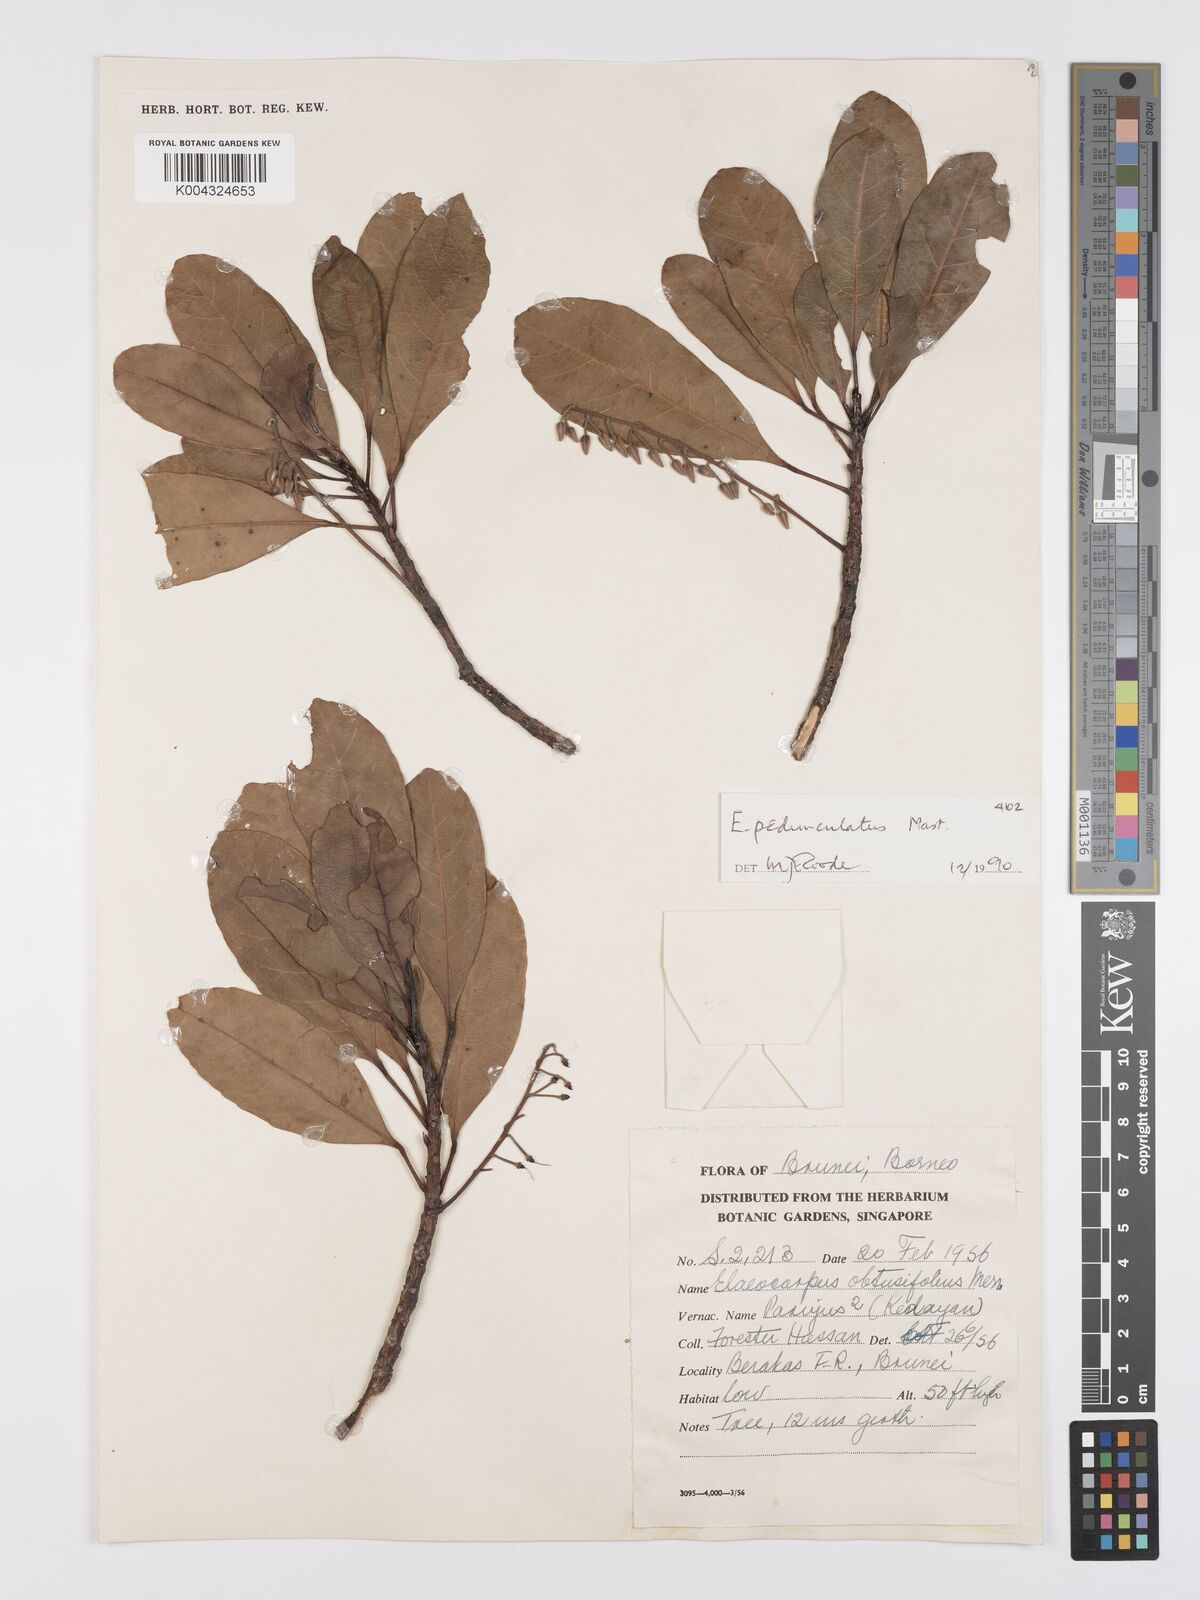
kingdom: Plantae
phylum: Tracheophyta
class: Magnoliopsida
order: Oxalidales
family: Elaeocarpaceae
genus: Elaeocarpus
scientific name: Elaeocarpus pedunculatus
